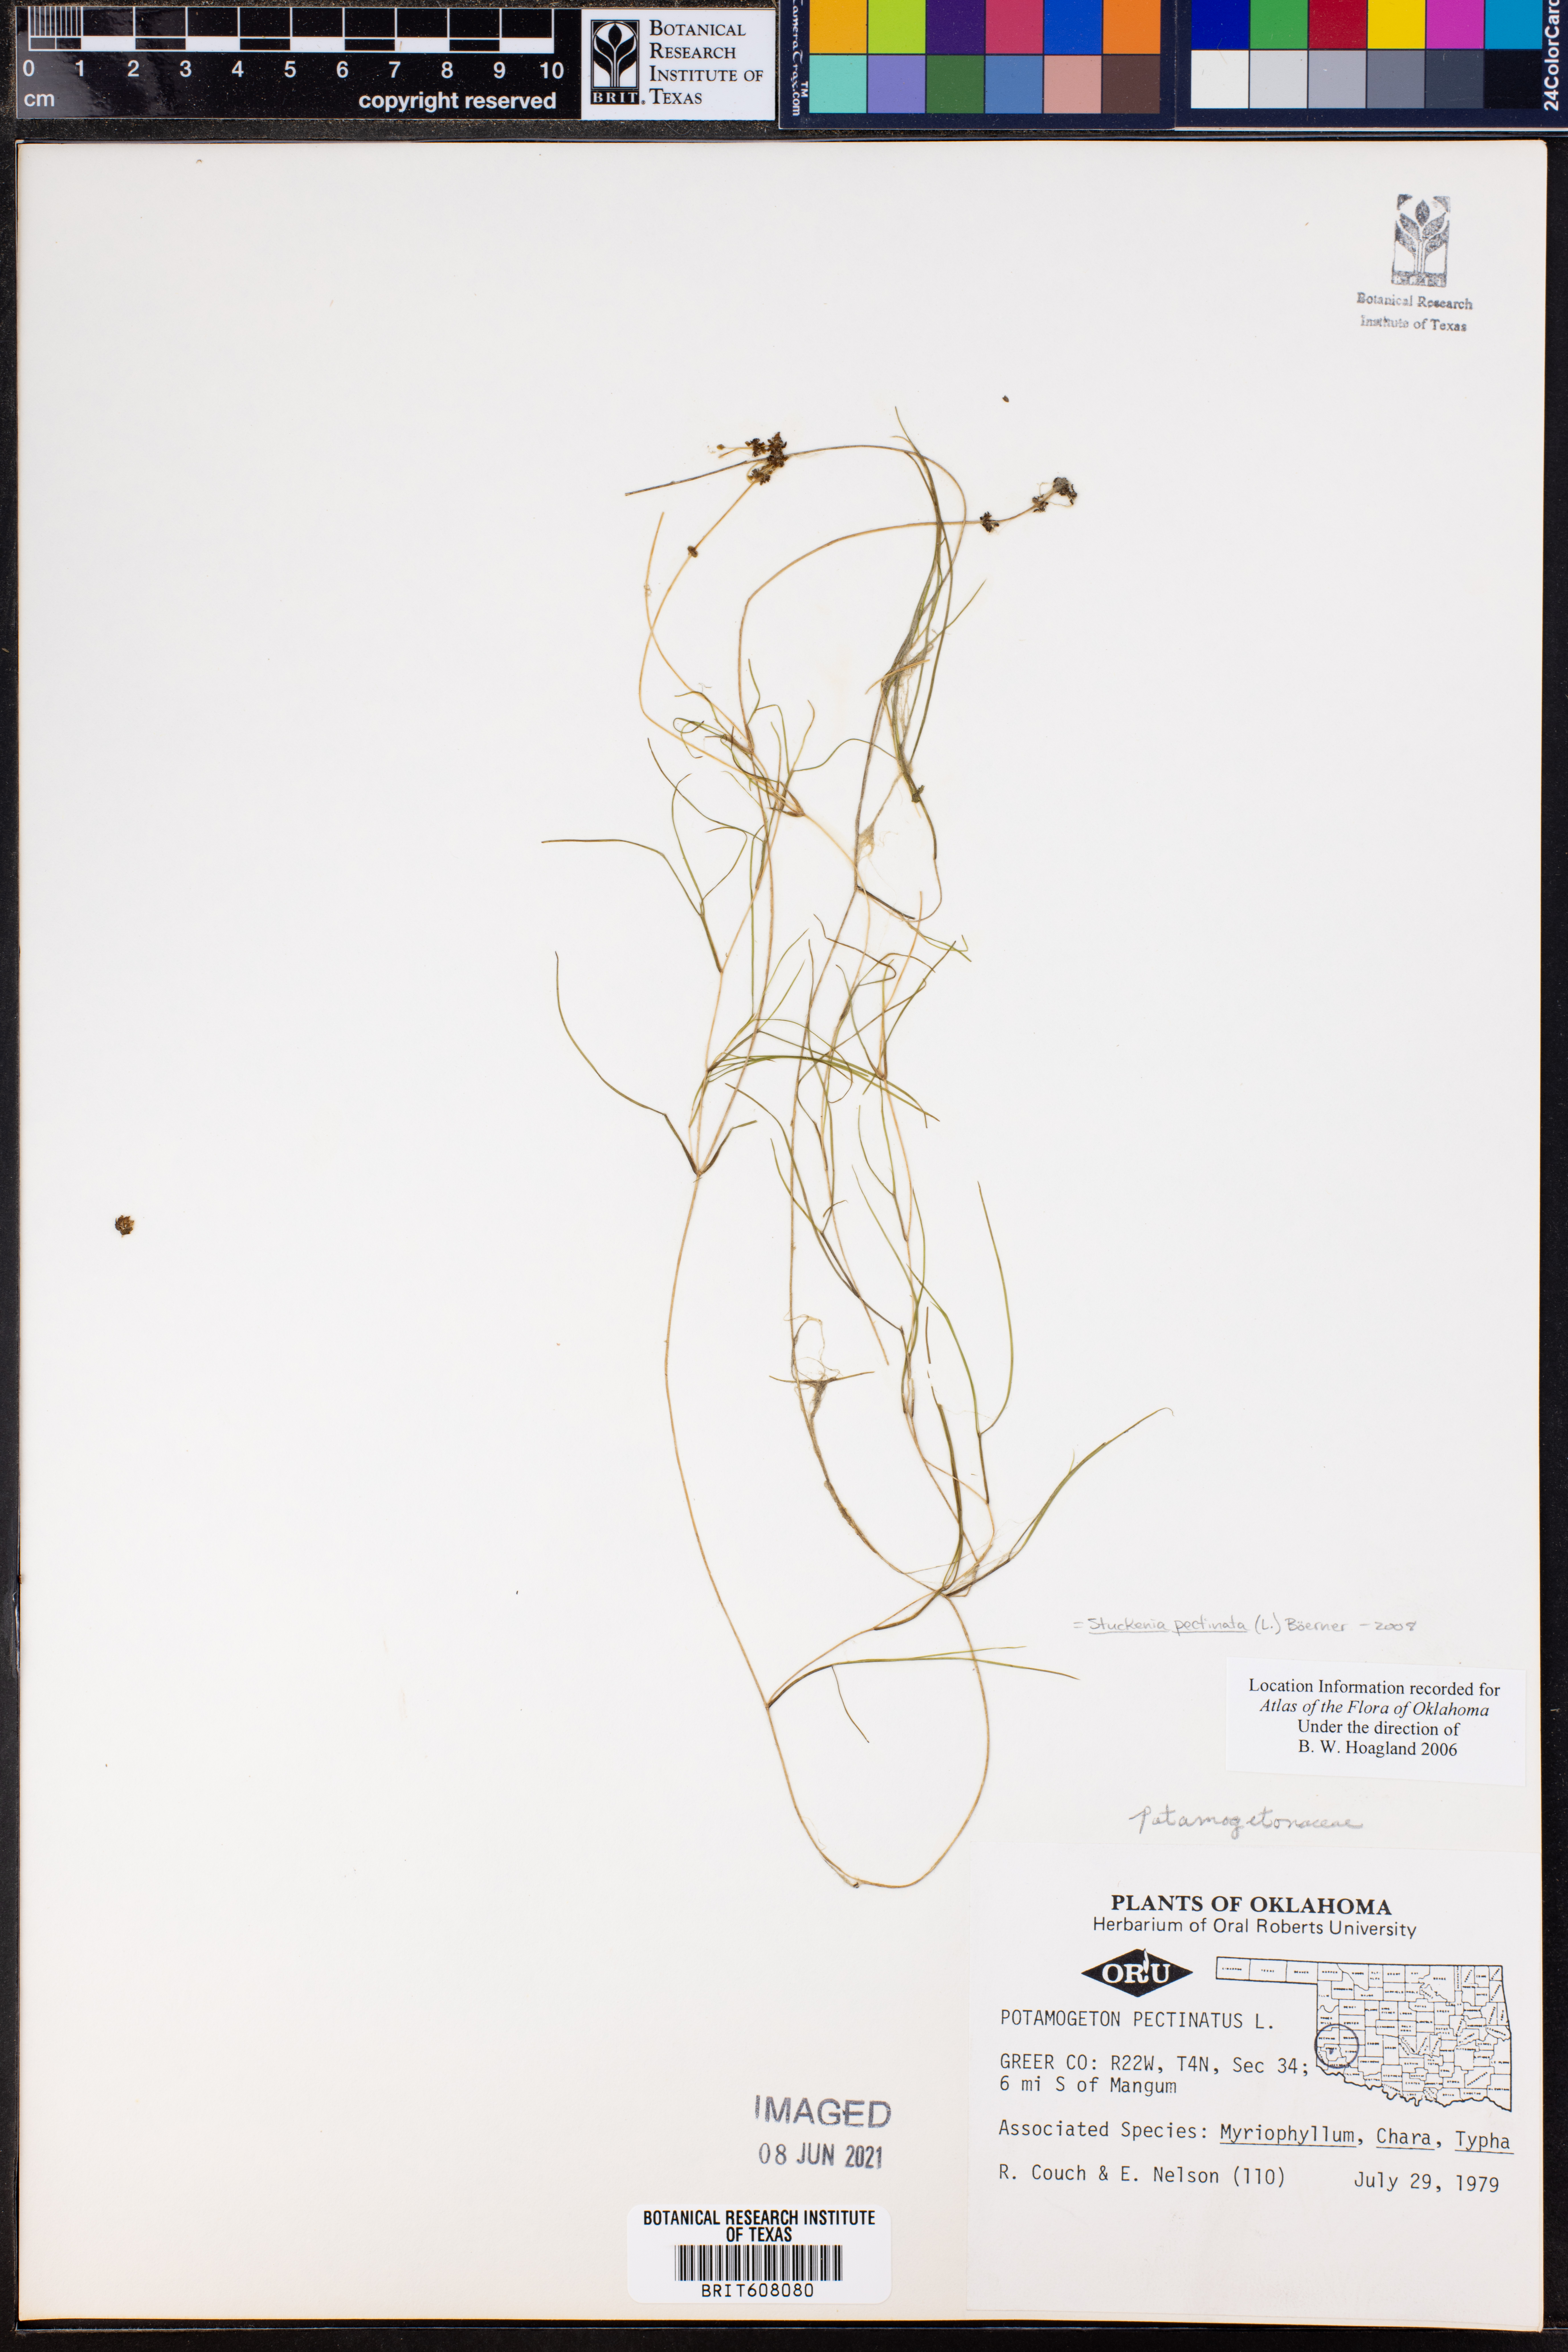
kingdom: Plantae
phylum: Tracheophyta
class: Liliopsida
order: Alismatales
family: Potamogetonaceae
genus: Stuckenia
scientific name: Stuckenia pectinata
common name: Sago pondweed
